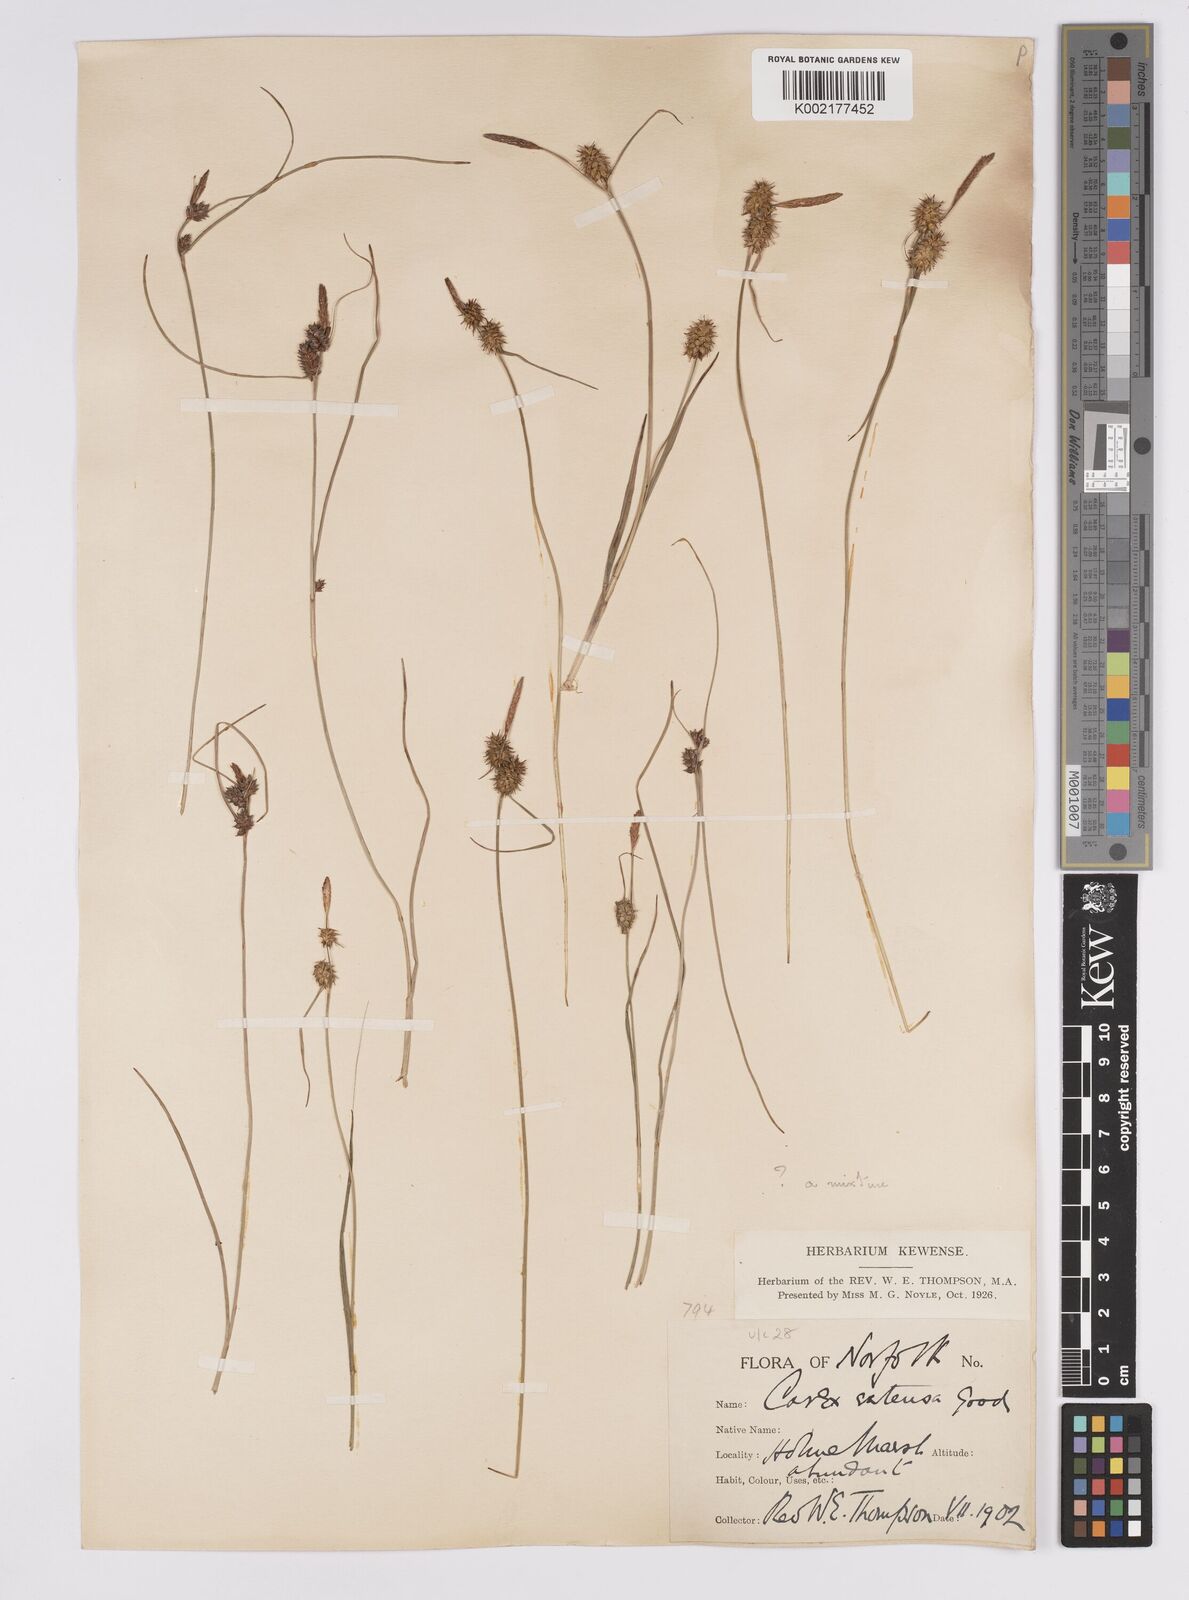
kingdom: Plantae
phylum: Tracheophyta
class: Liliopsida
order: Poales
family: Cyperaceae
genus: Carex
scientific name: Carex extensa
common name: Long-bracted sedge
